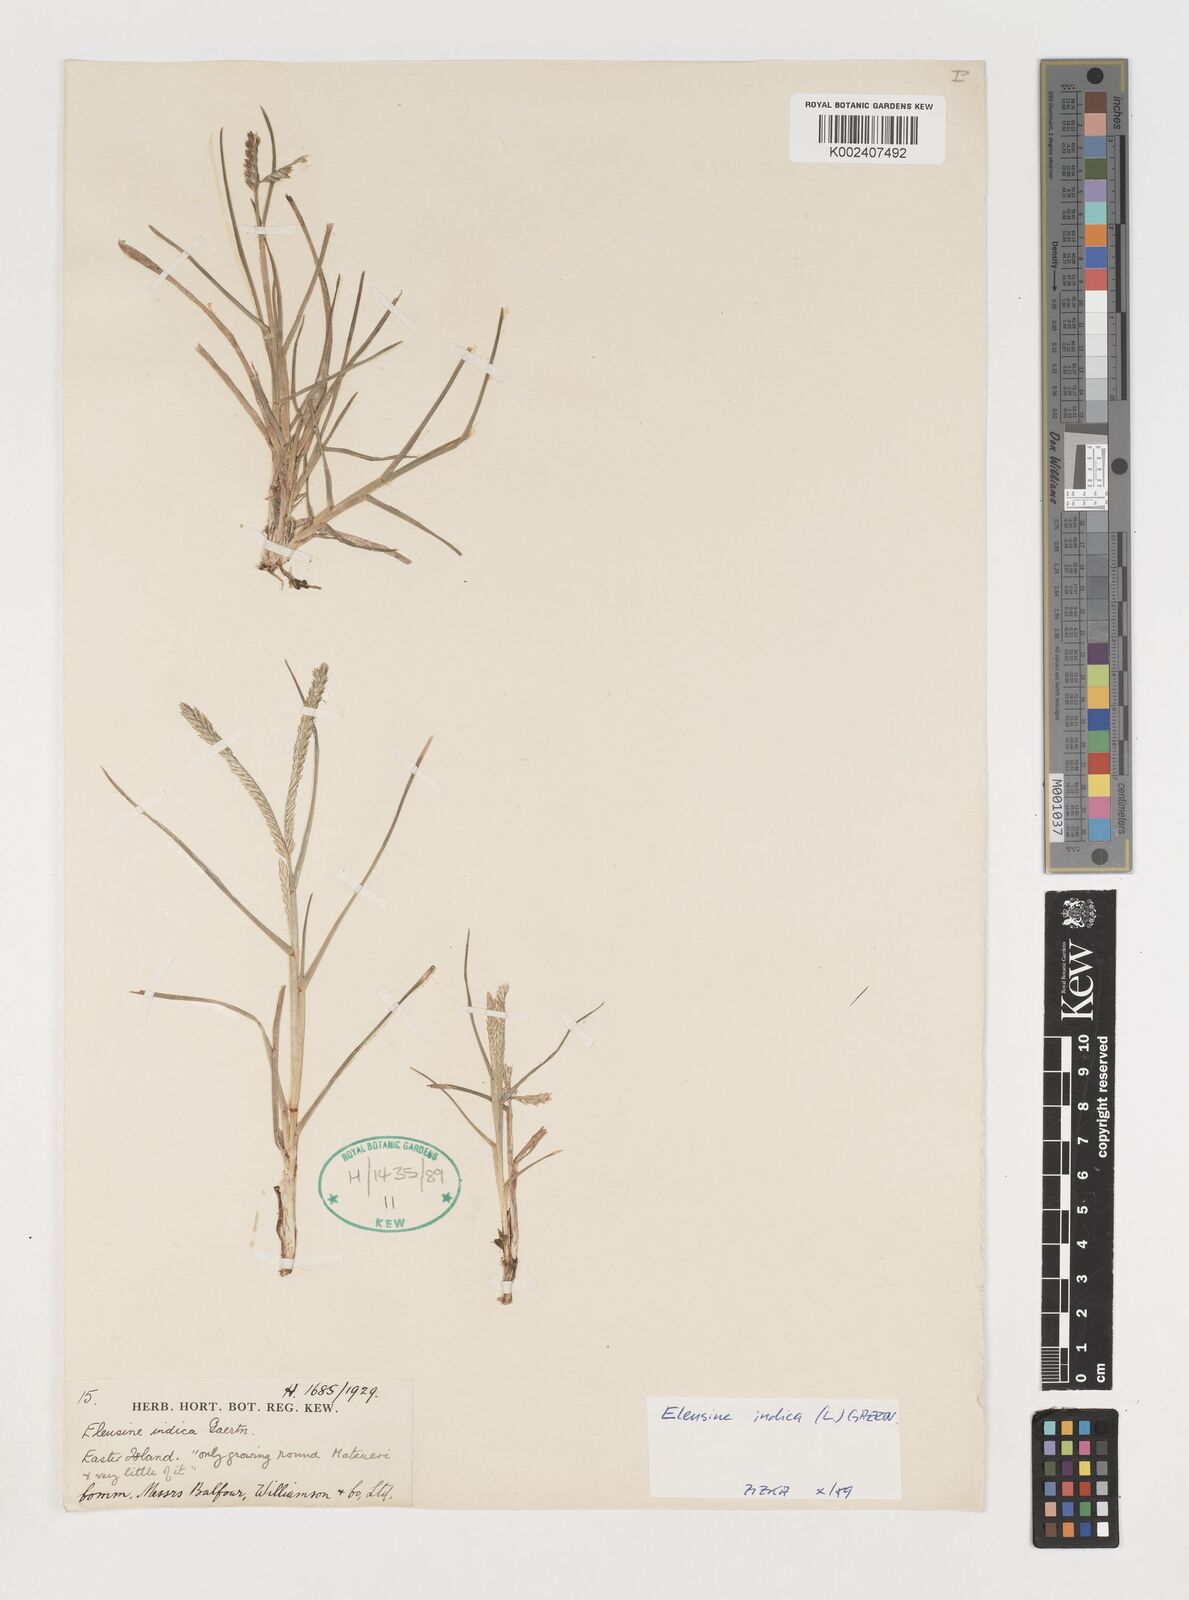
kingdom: Plantae
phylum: Tracheophyta
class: Liliopsida
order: Poales
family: Poaceae
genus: Eleusine
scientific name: Eleusine indica
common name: Yard-grass
